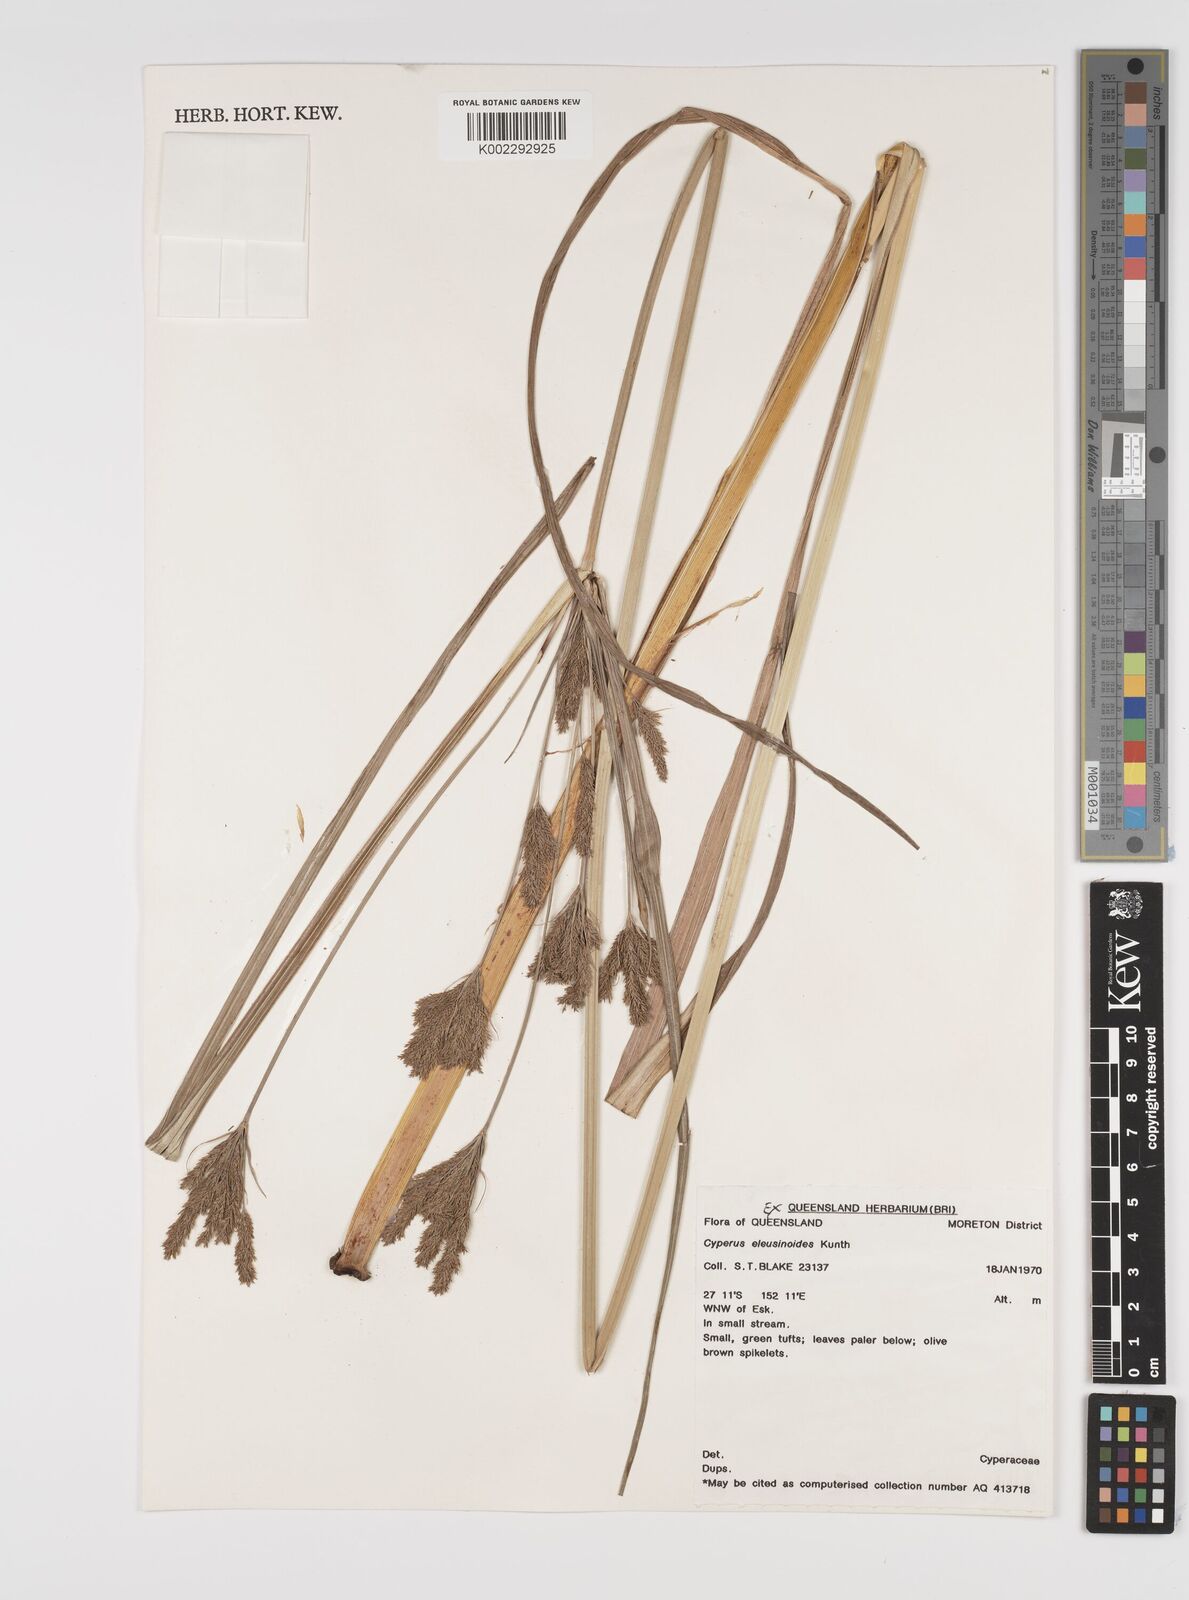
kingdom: Plantae
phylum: Tracheophyta
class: Liliopsida
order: Poales
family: Cyperaceae
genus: Cyperus
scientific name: Cyperus nutans
